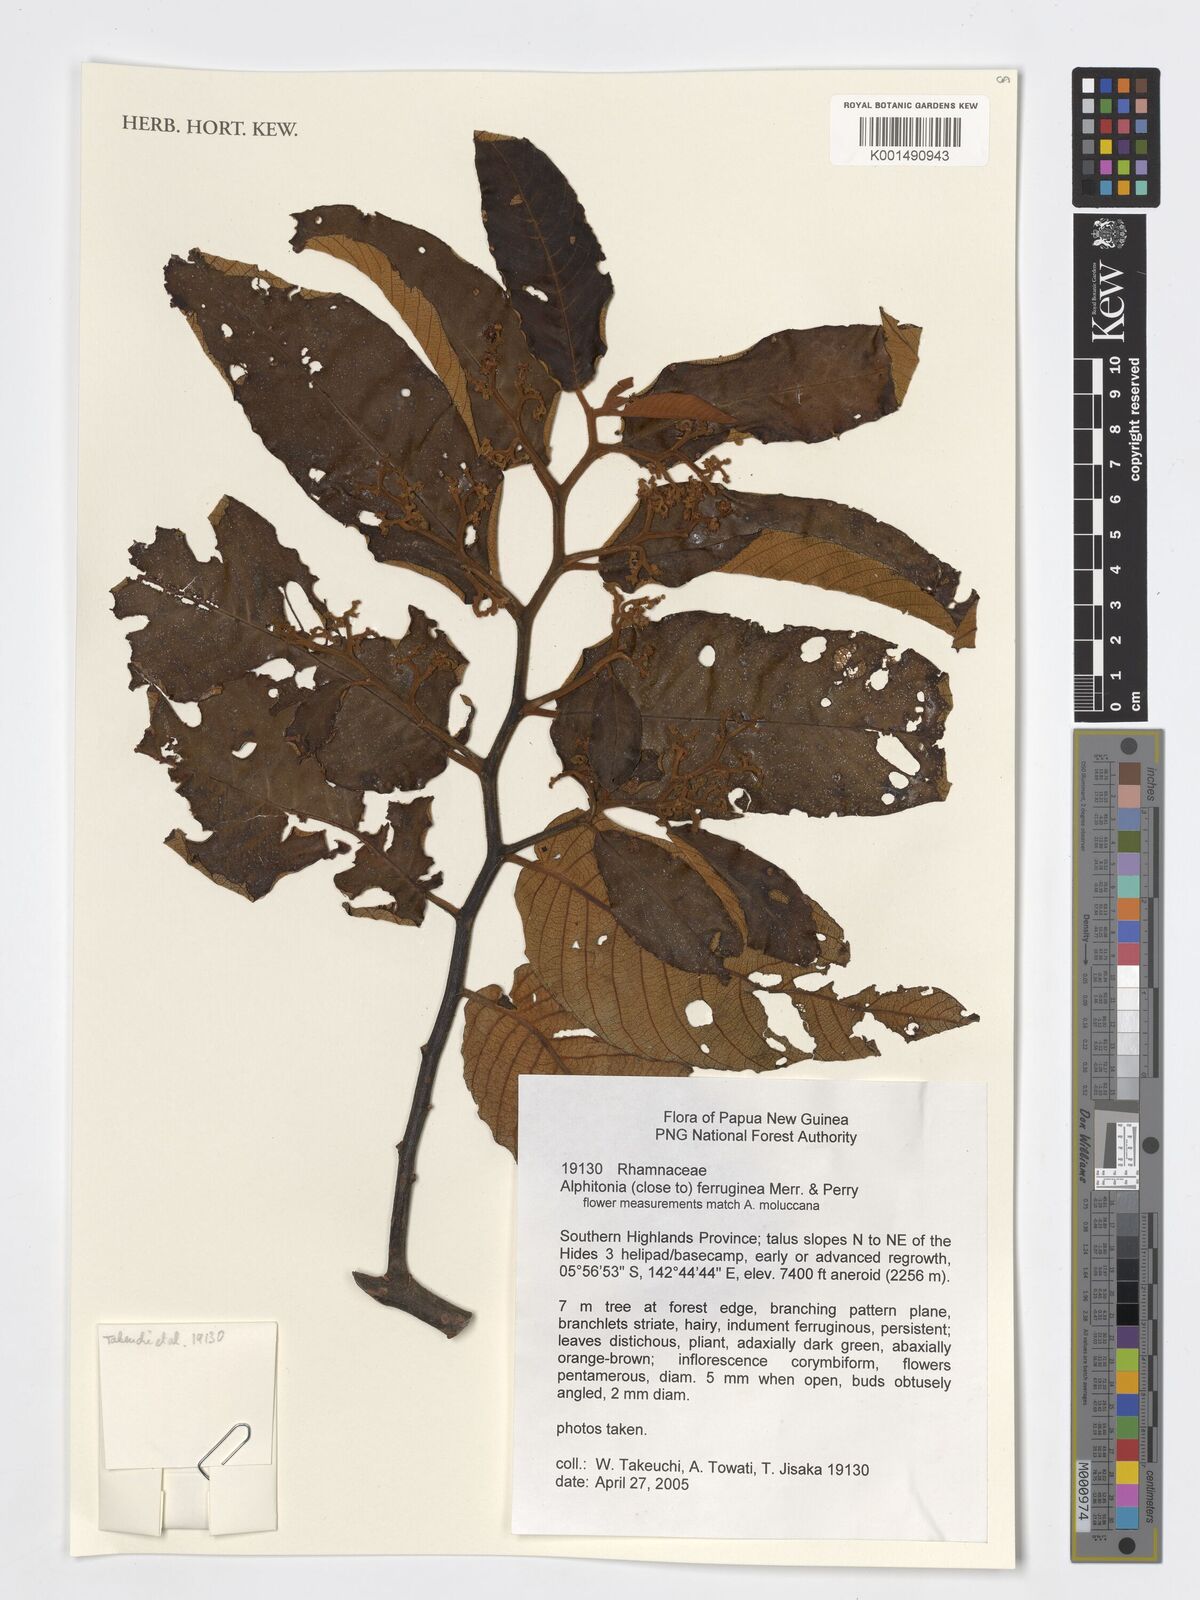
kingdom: Plantae
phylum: Tracheophyta
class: Magnoliopsida
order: Rosales
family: Rhamnaceae
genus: Alphitonia
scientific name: Alphitonia ferruginea
